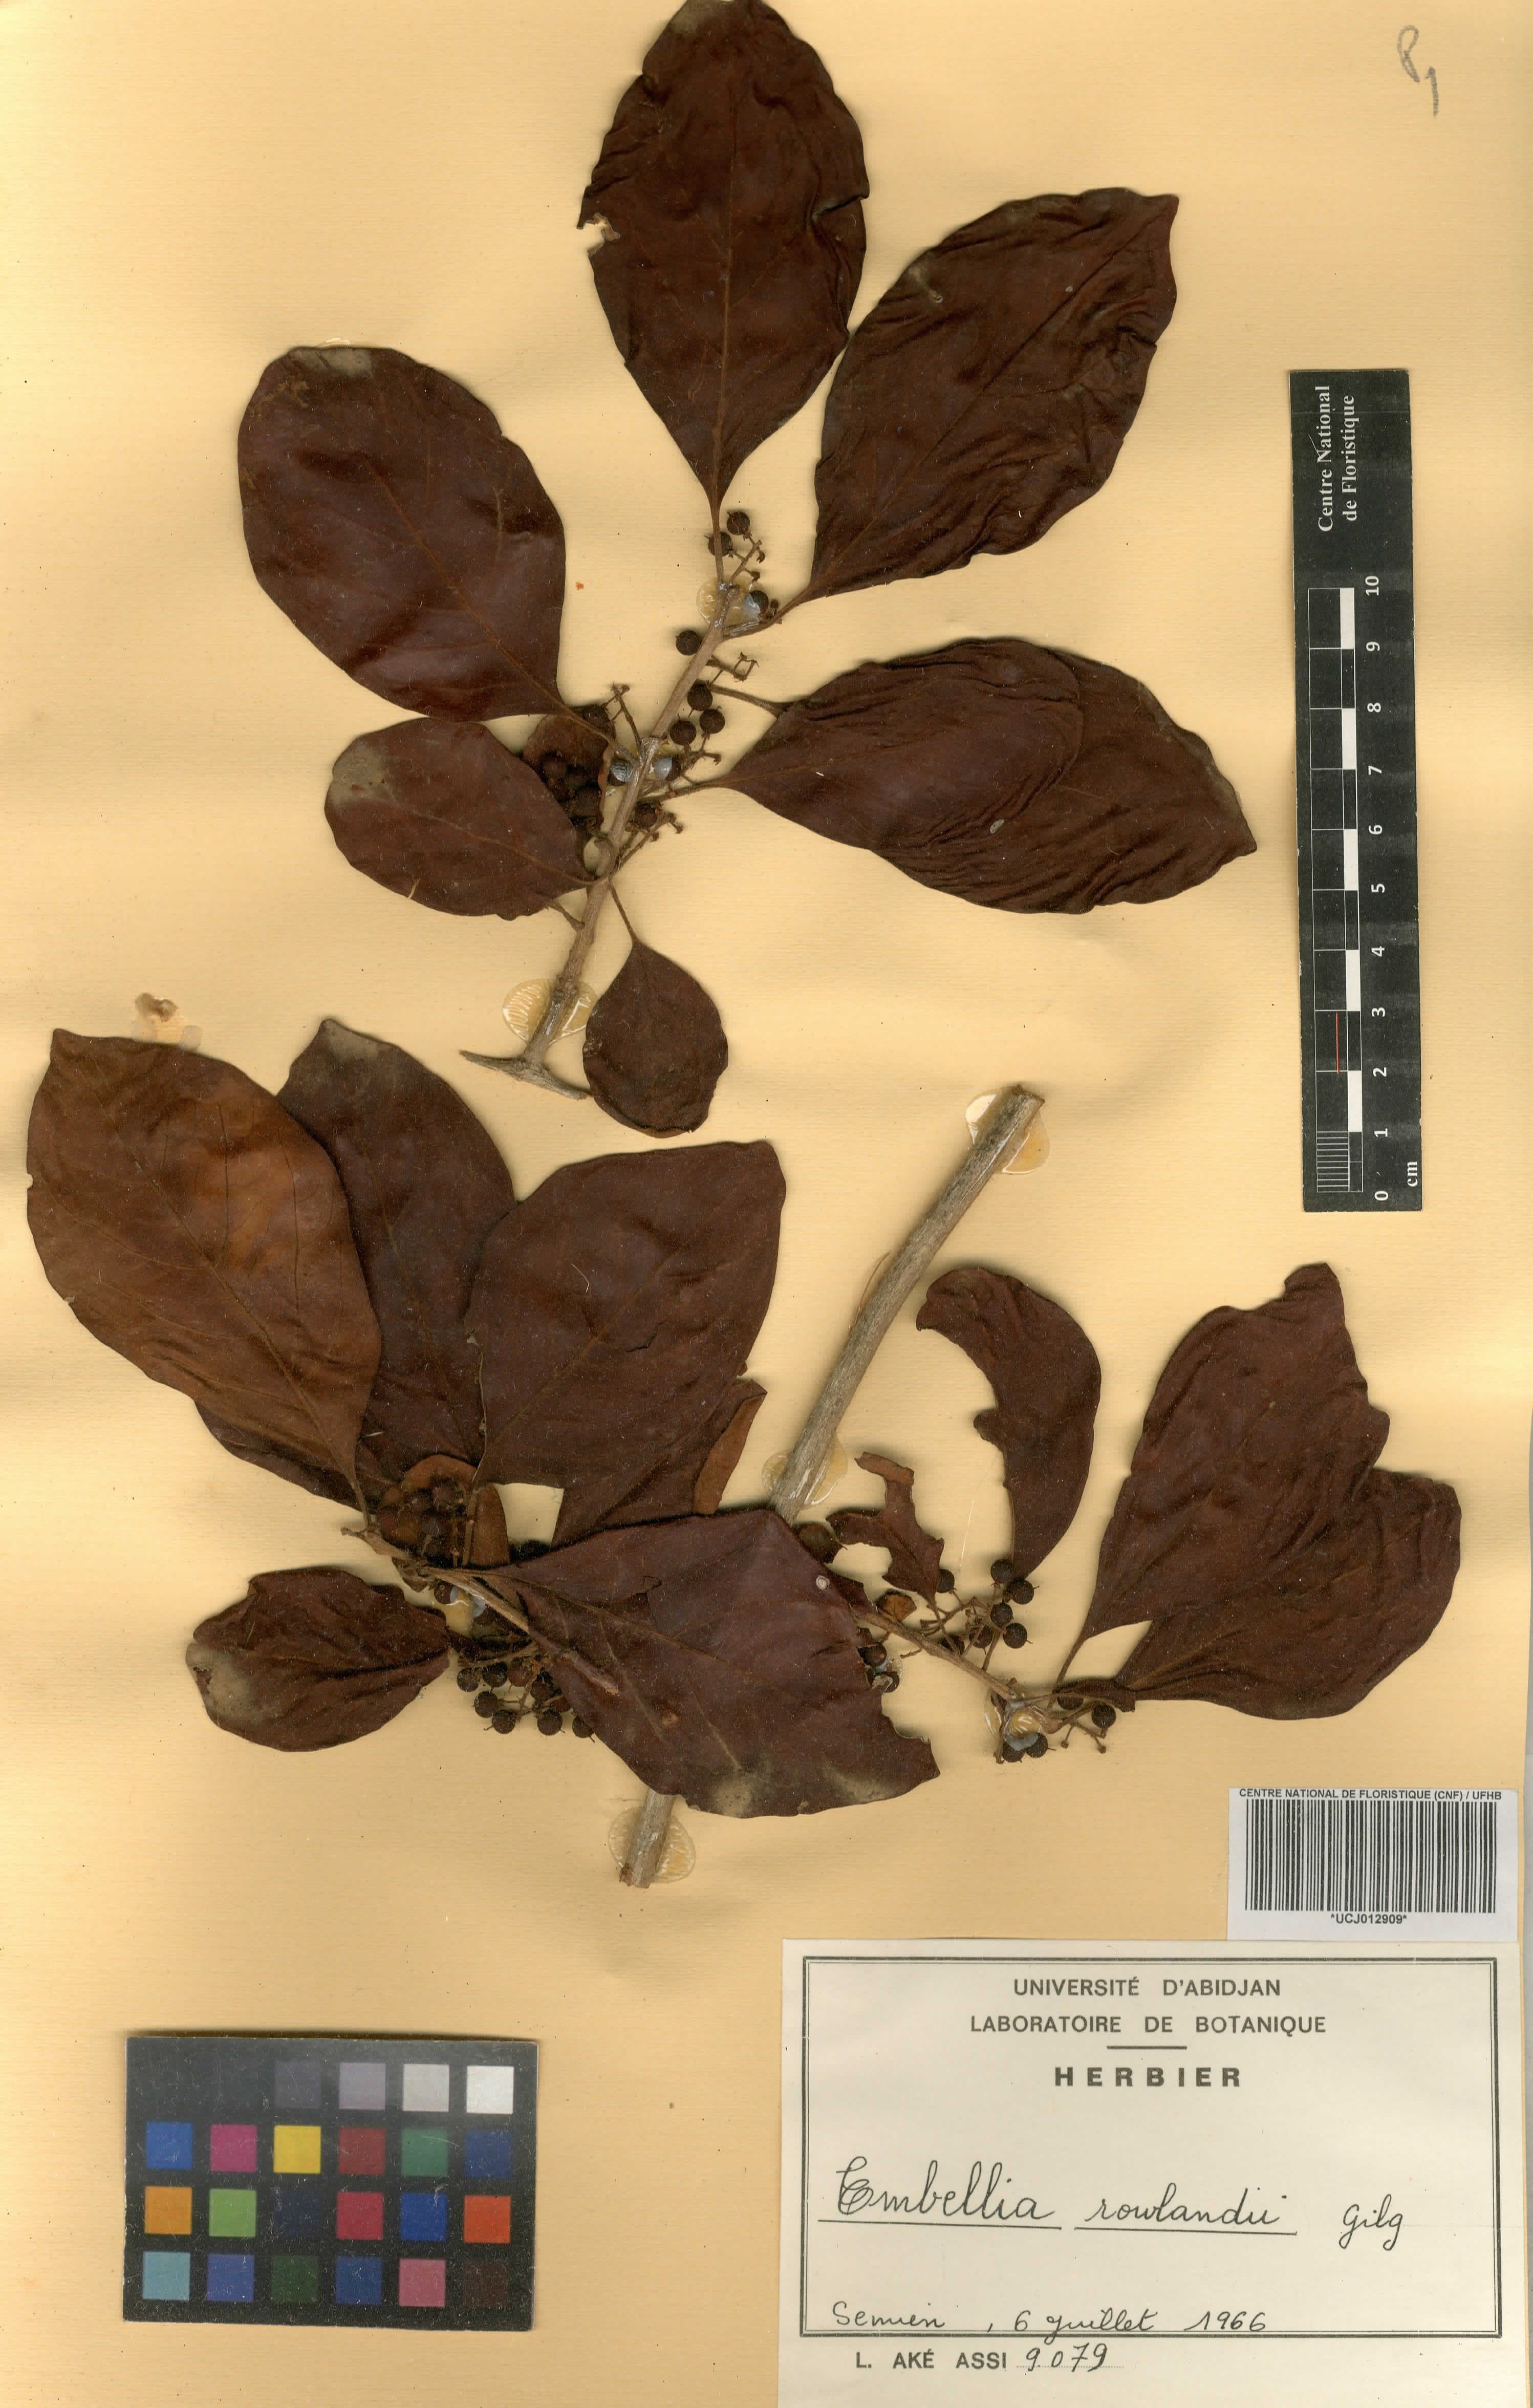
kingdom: Plantae
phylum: Tracheophyta
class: Magnoliopsida
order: Ericales
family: Primulaceae
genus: Embelia
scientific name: Embelia rowlandii
